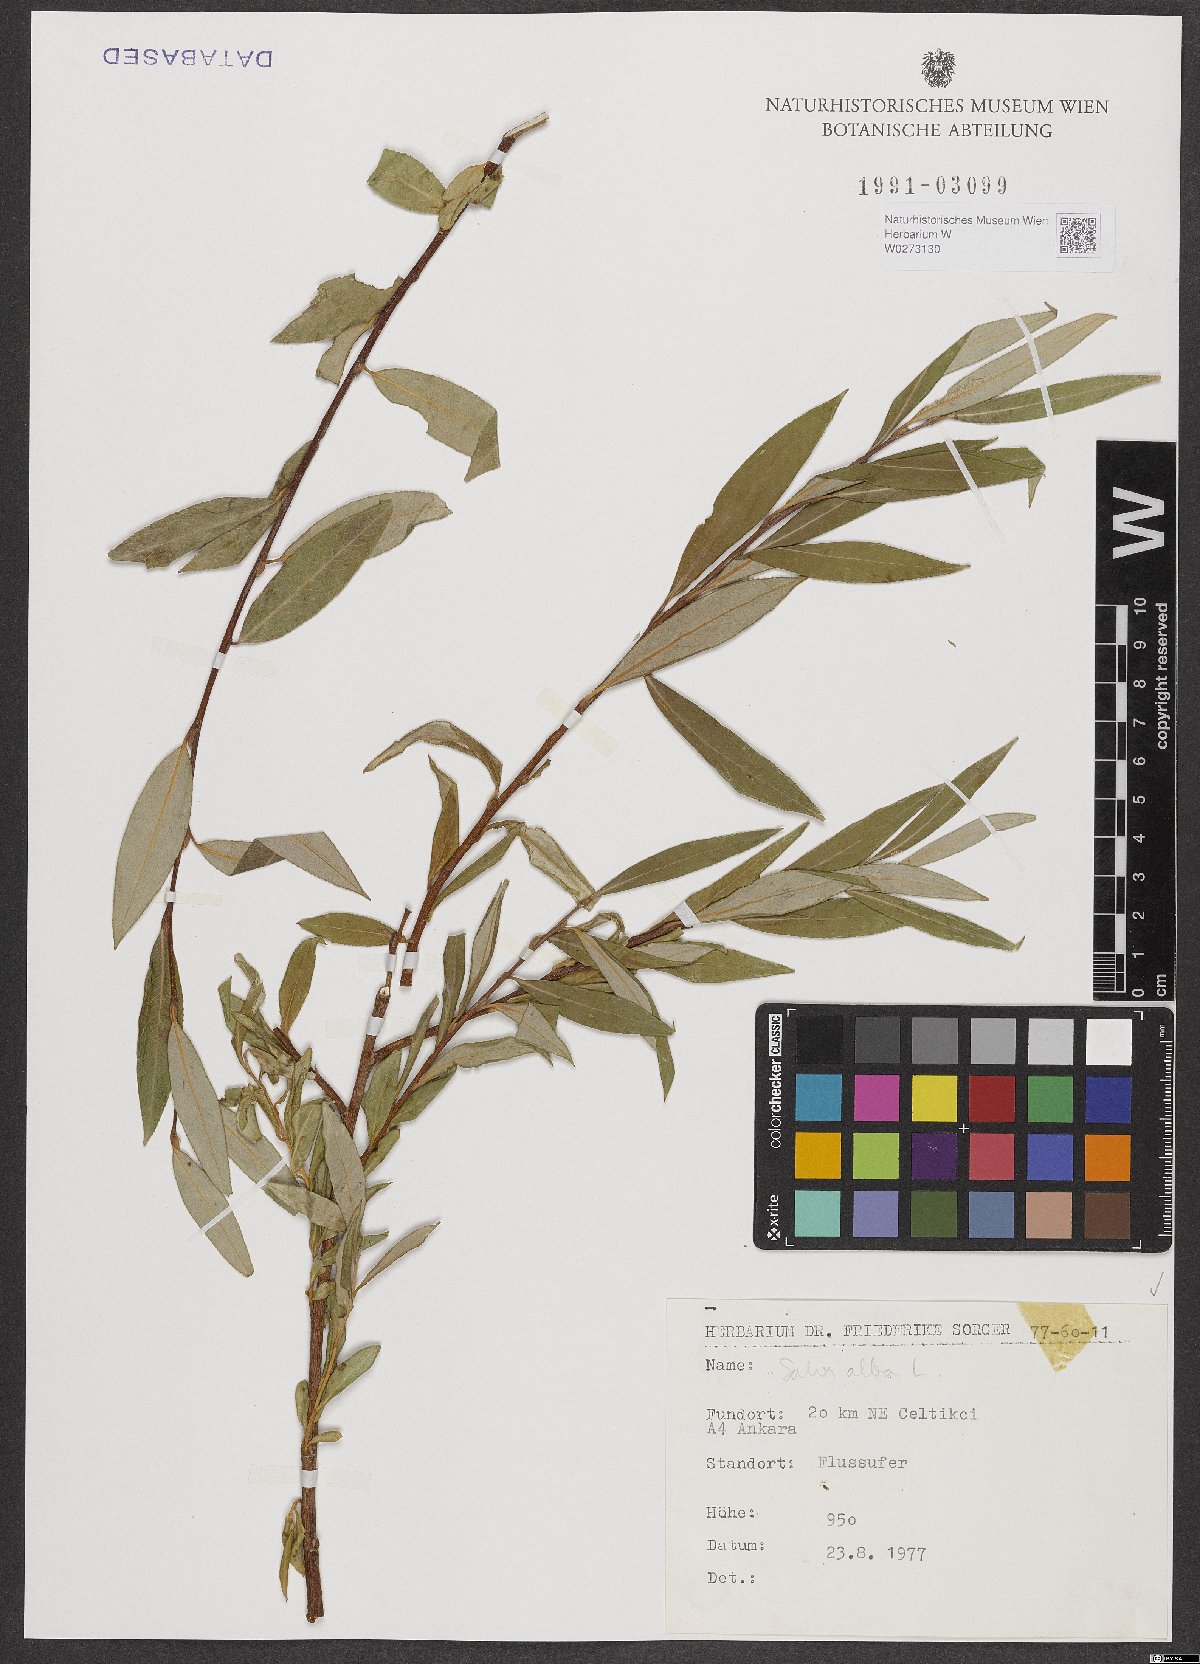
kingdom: Plantae
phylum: Tracheophyta
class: Magnoliopsida
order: Malpighiales
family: Salicaceae
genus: Salix
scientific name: Salix alba
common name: White willow
